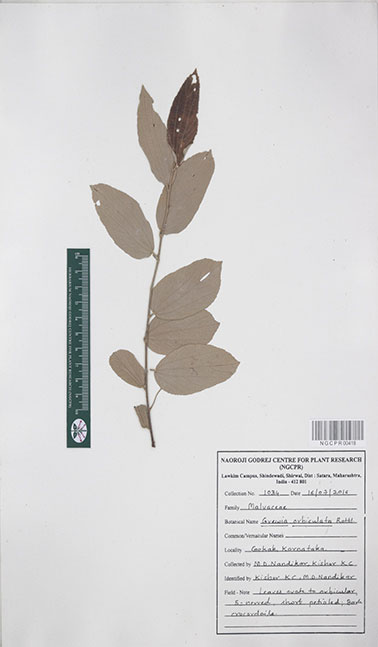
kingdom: Plantae
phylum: Tracheophyta
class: Magnoliopsida
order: Malvales
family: Malvaceae
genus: Grewia
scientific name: Grewia orbiculata
